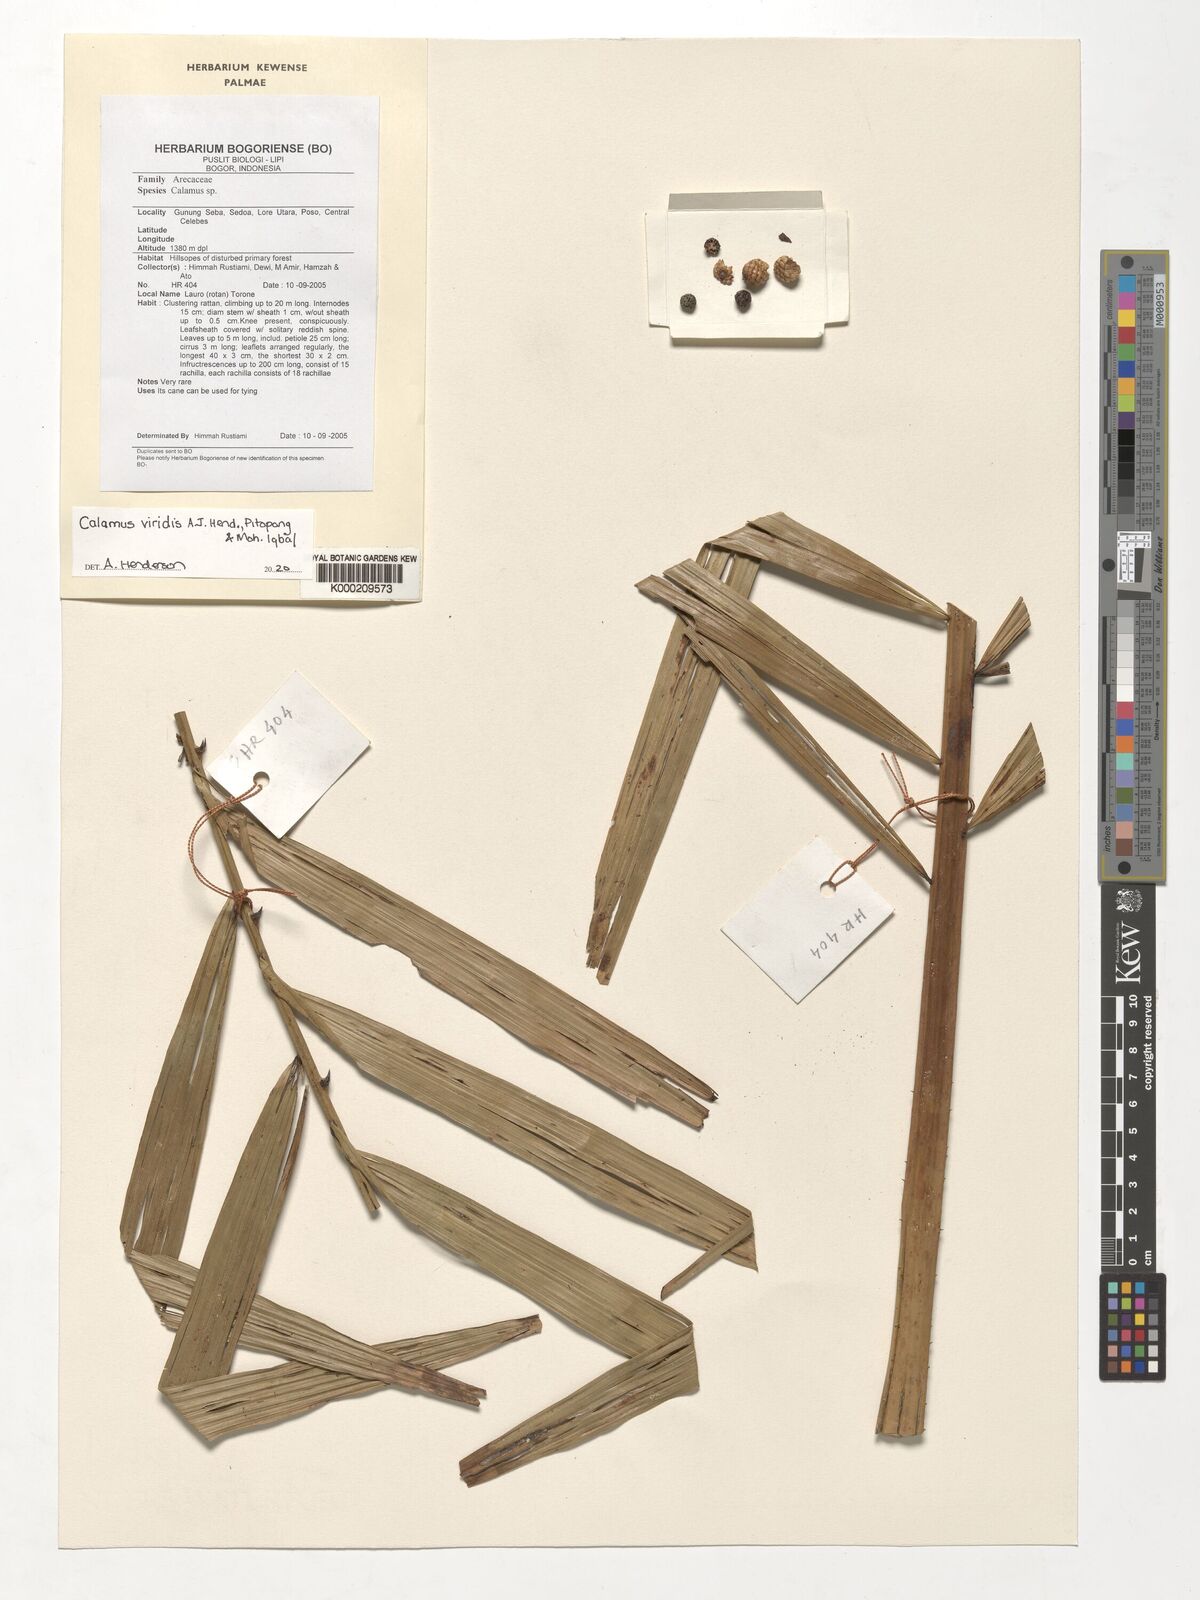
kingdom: Plantae
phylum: Tracheophyta
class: Liliopsida
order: Arecales
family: Arecaceae
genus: Calamus
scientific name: Calamus
